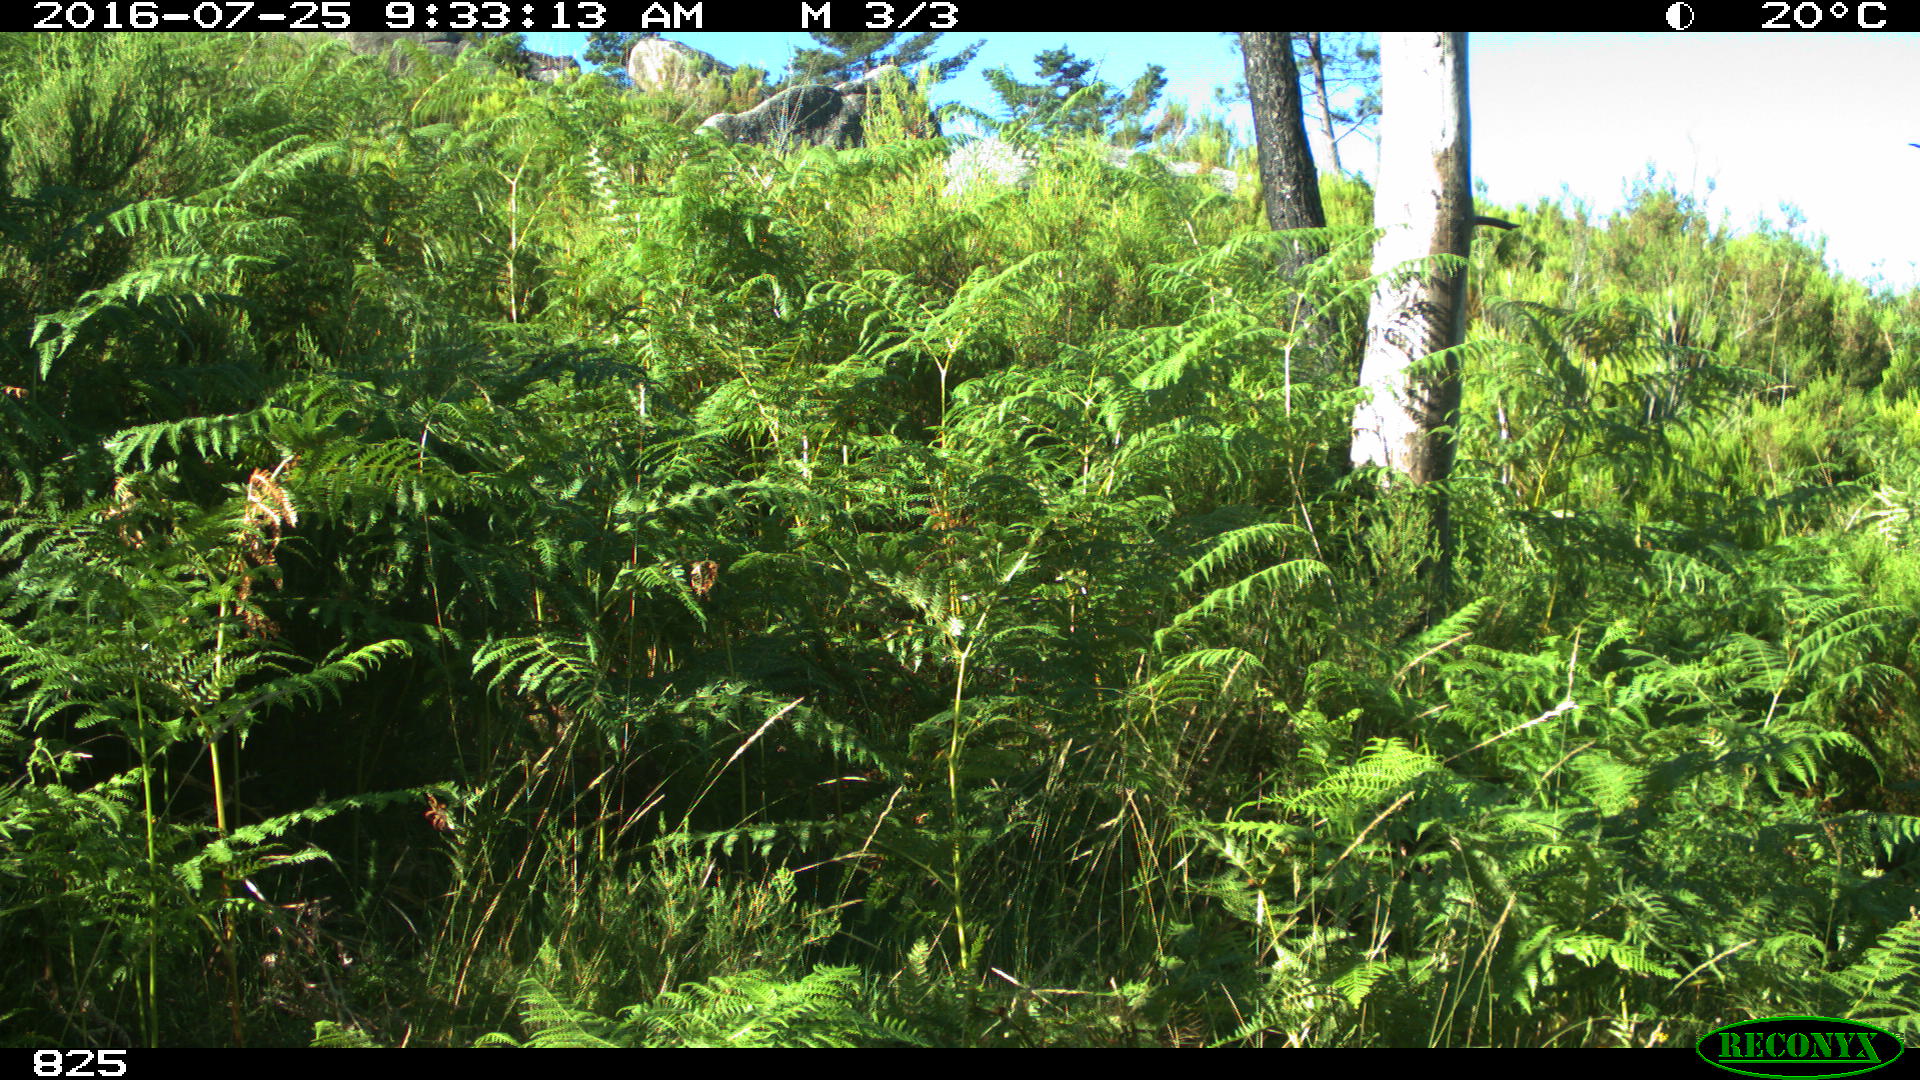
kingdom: Animalia
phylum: Chordata
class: Mammalia
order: Artiodactyla
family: Bovidae
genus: Bos
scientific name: Bos taurus
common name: Domesticated cattle
